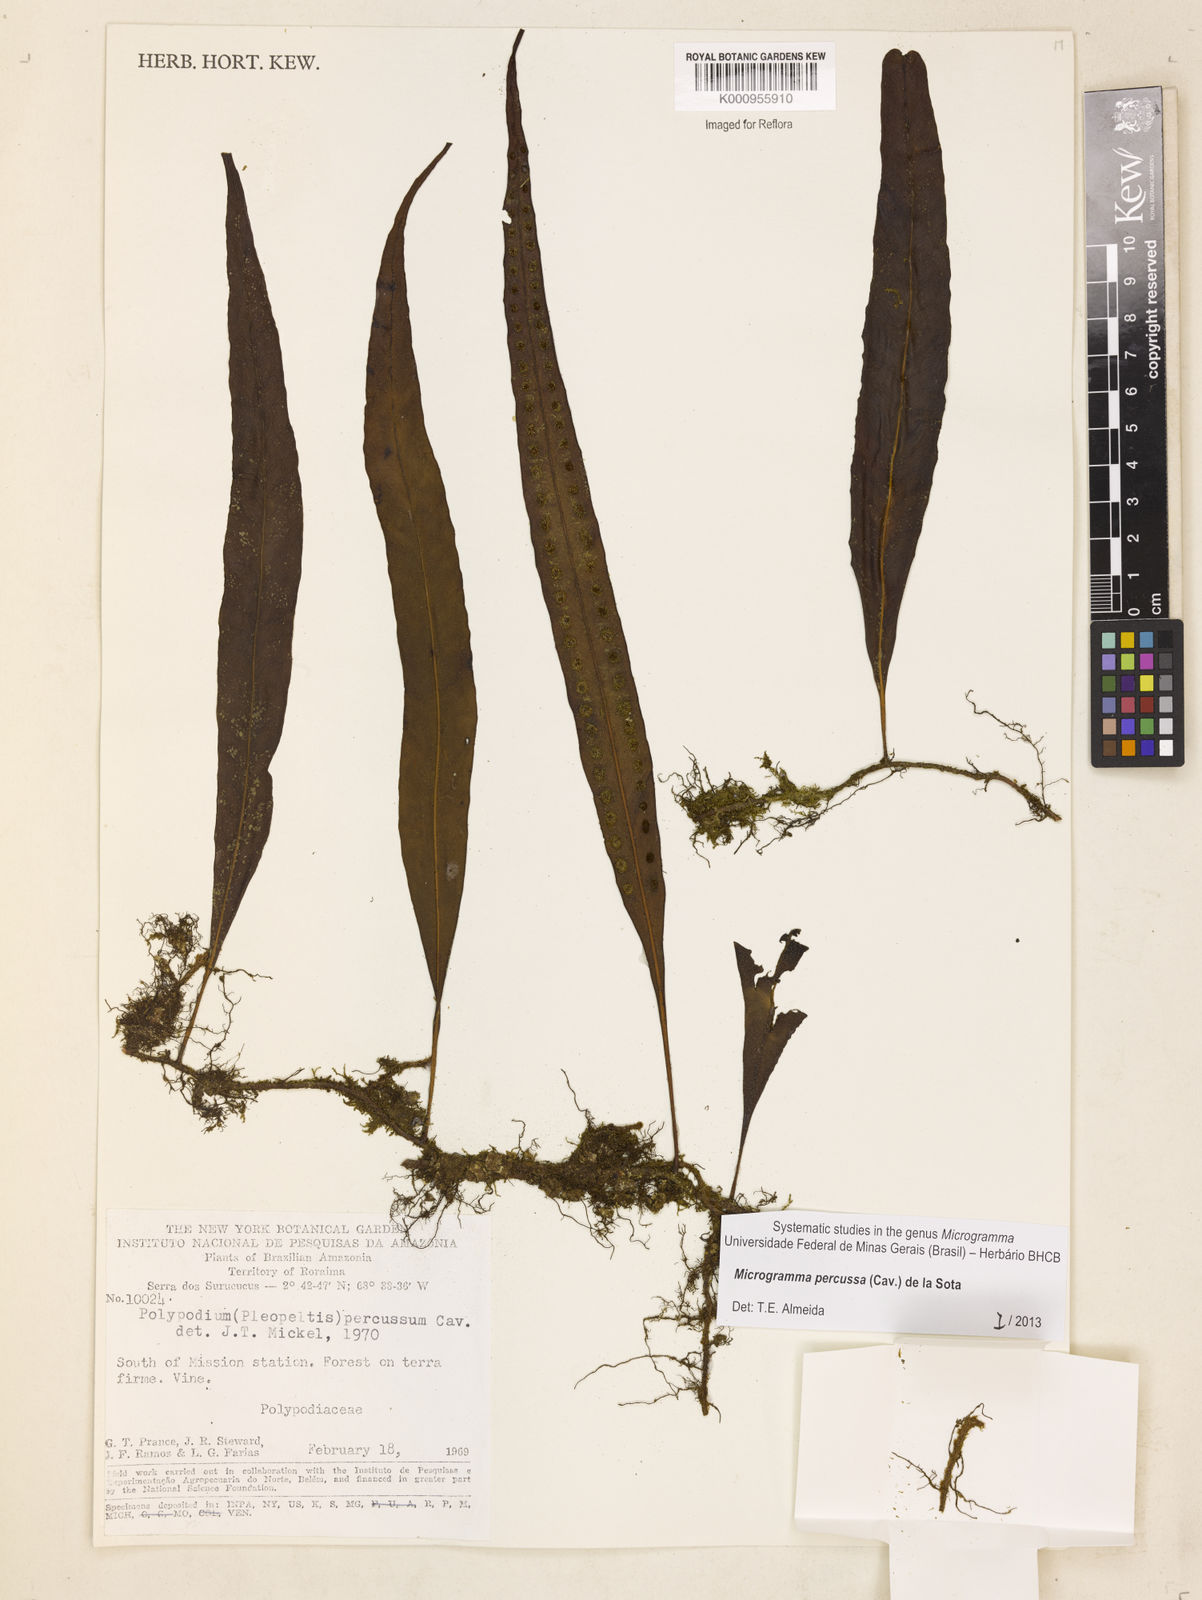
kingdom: Plantae
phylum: Tracheophyta
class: Polypodiopsida
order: Polypodiales
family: Polypodiaceae
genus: Microgramma
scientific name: Microgramma percussa
